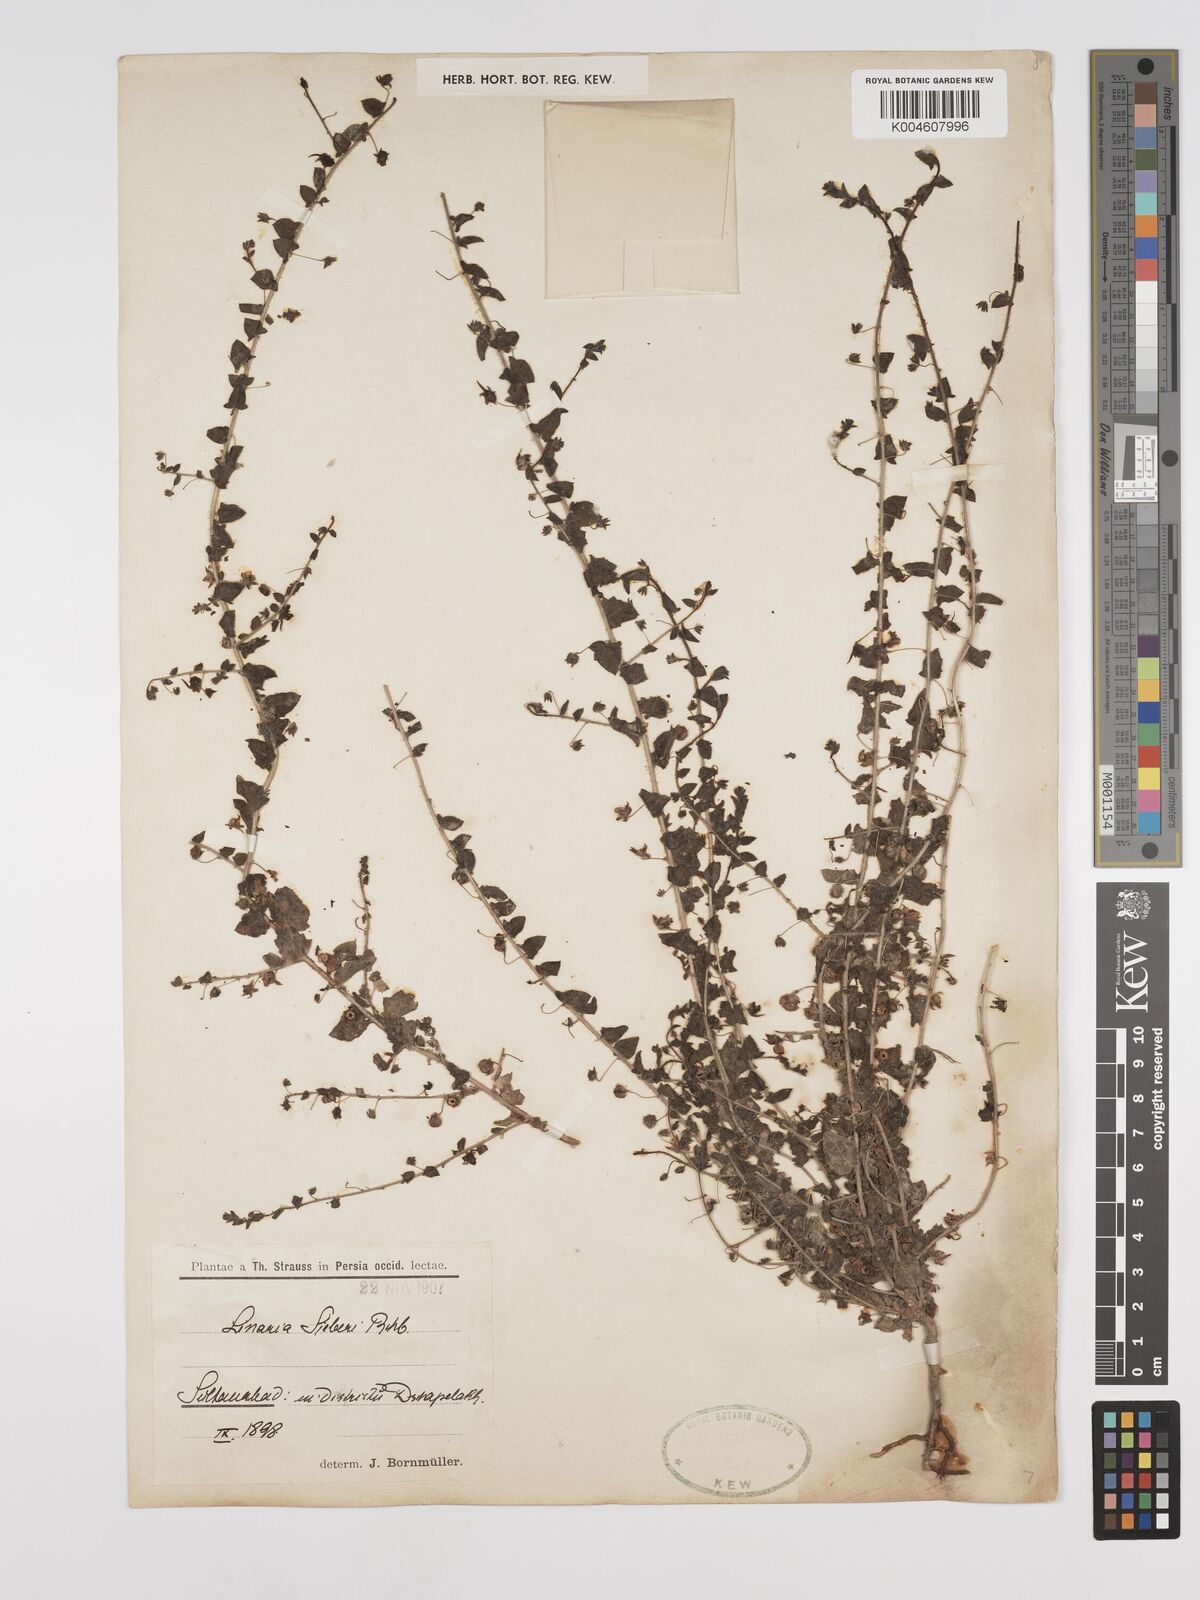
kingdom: Plantae
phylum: Tracheophyta
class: Magnoliopsida
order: Lamiales
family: Plantaginaceae
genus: Kickxia
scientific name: Kickxia elatine
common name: Sharp-leaved fluellen
